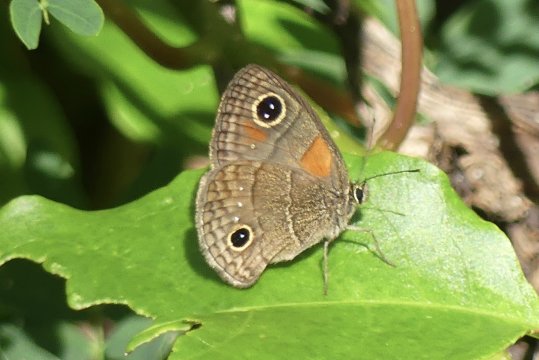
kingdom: Animalia
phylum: Arthropoda
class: Insecta
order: Lepidoptera
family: Nymphalidae
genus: Calisto
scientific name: Calisto
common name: Bates' Calisto
